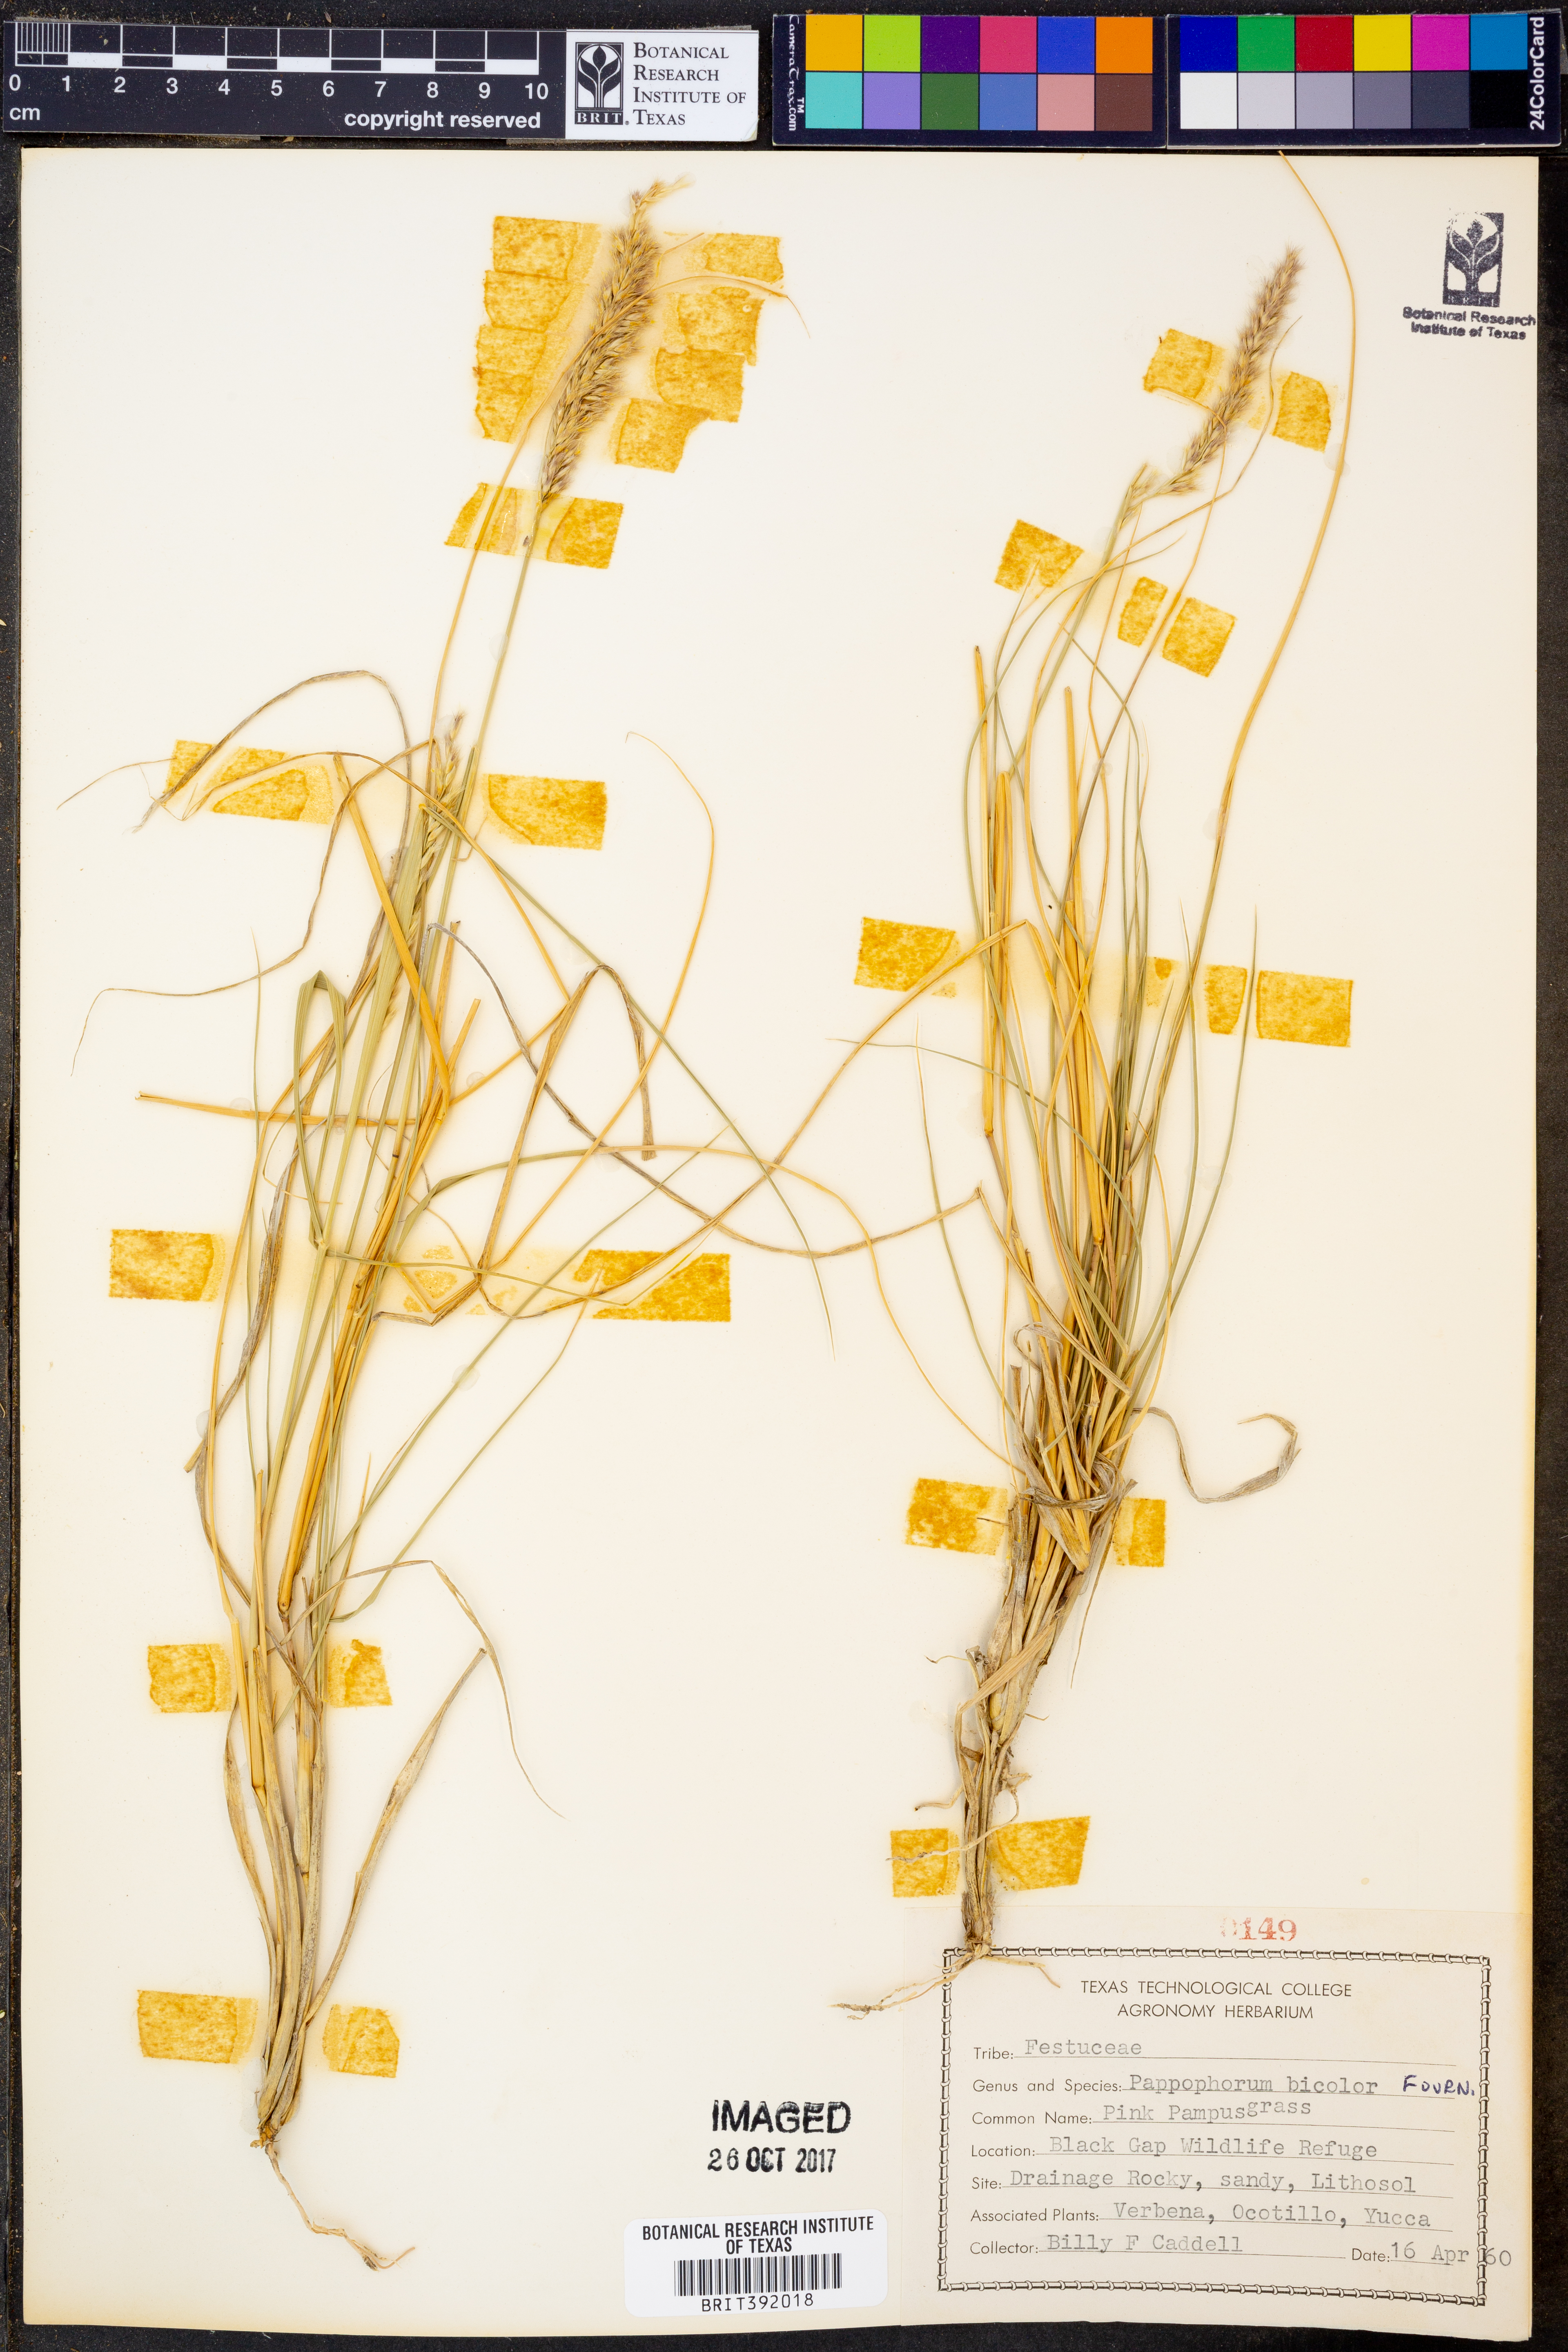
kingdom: Plantae
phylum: Tracheophyta
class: Liliopsida
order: Poales
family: Poaceae
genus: Pappophorum
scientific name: Pappophorum bicolor
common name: Pink pappus grass
